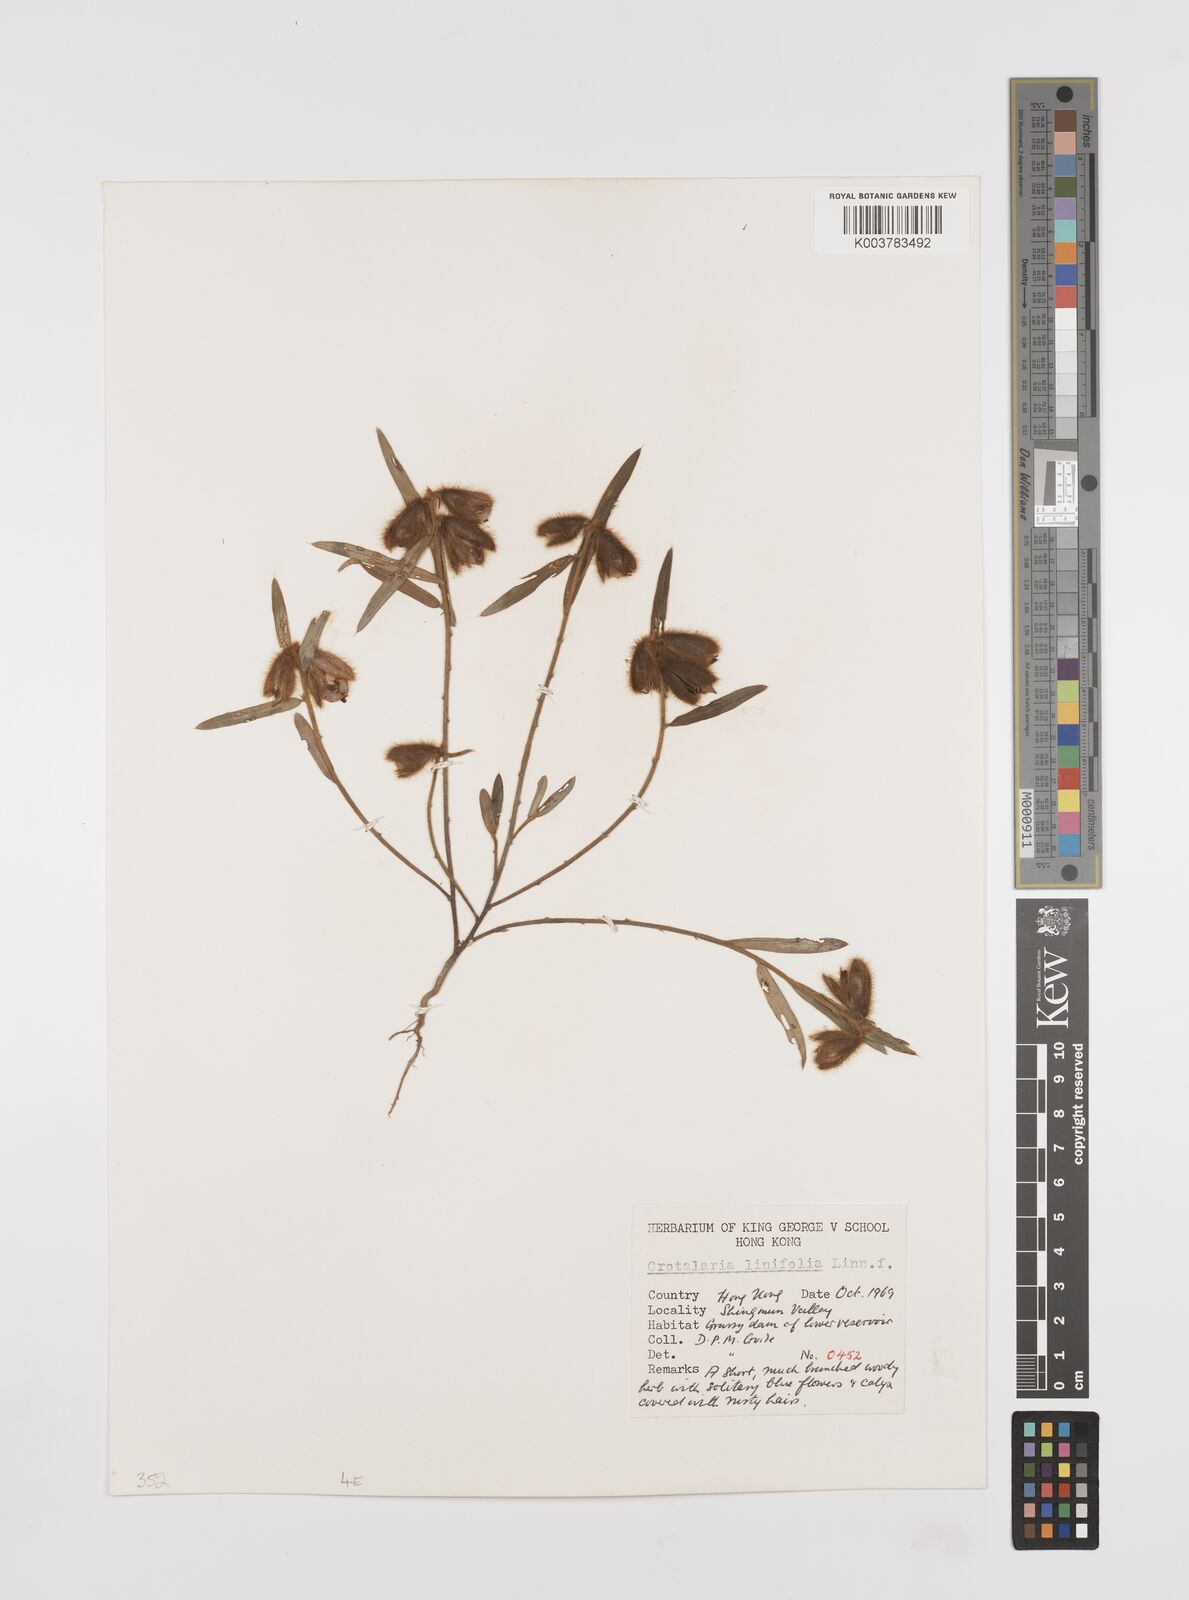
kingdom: Plantae
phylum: Tracheophyta
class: Magnoliopsida
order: Fabales
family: Fabaceae
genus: Crotalaria
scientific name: Crotalaria linifolia
